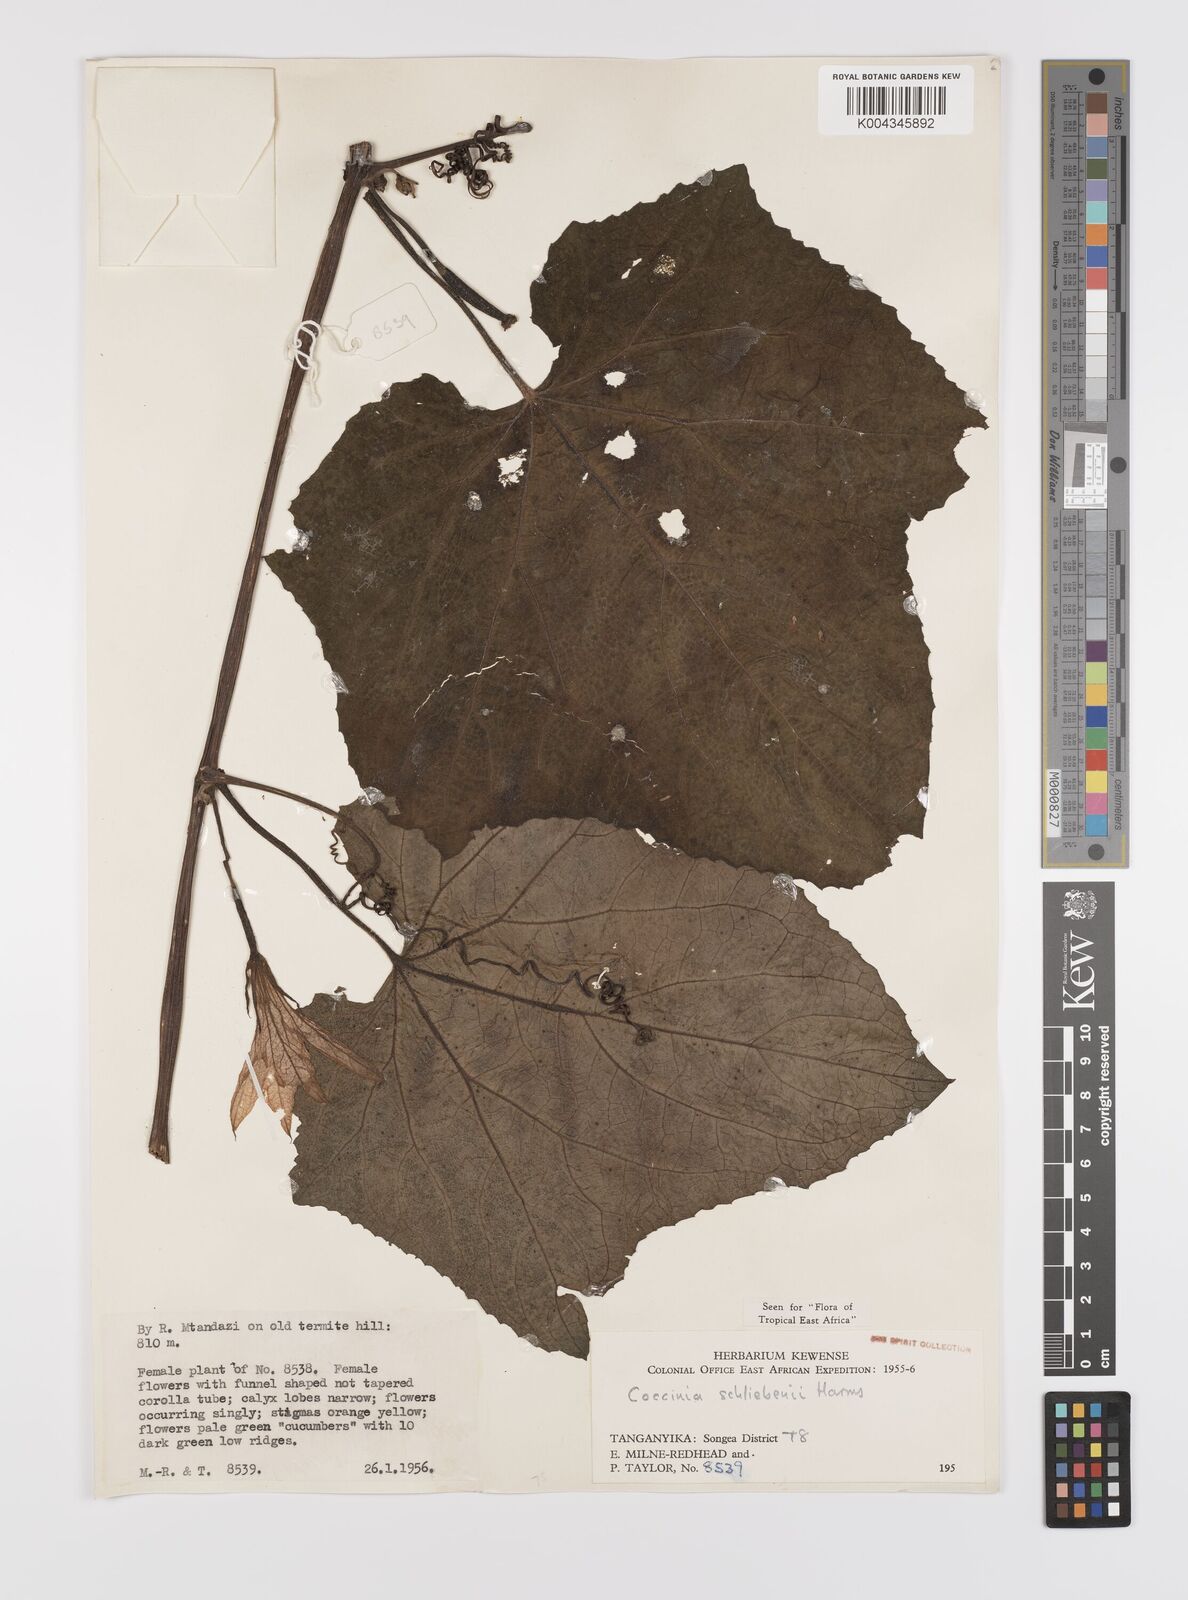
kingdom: Plantae
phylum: Tracheophyta
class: Magnoliopsida
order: Cucurbitales
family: Cucurbitaceae
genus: Coccinia
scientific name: Coccinia schliebenii
